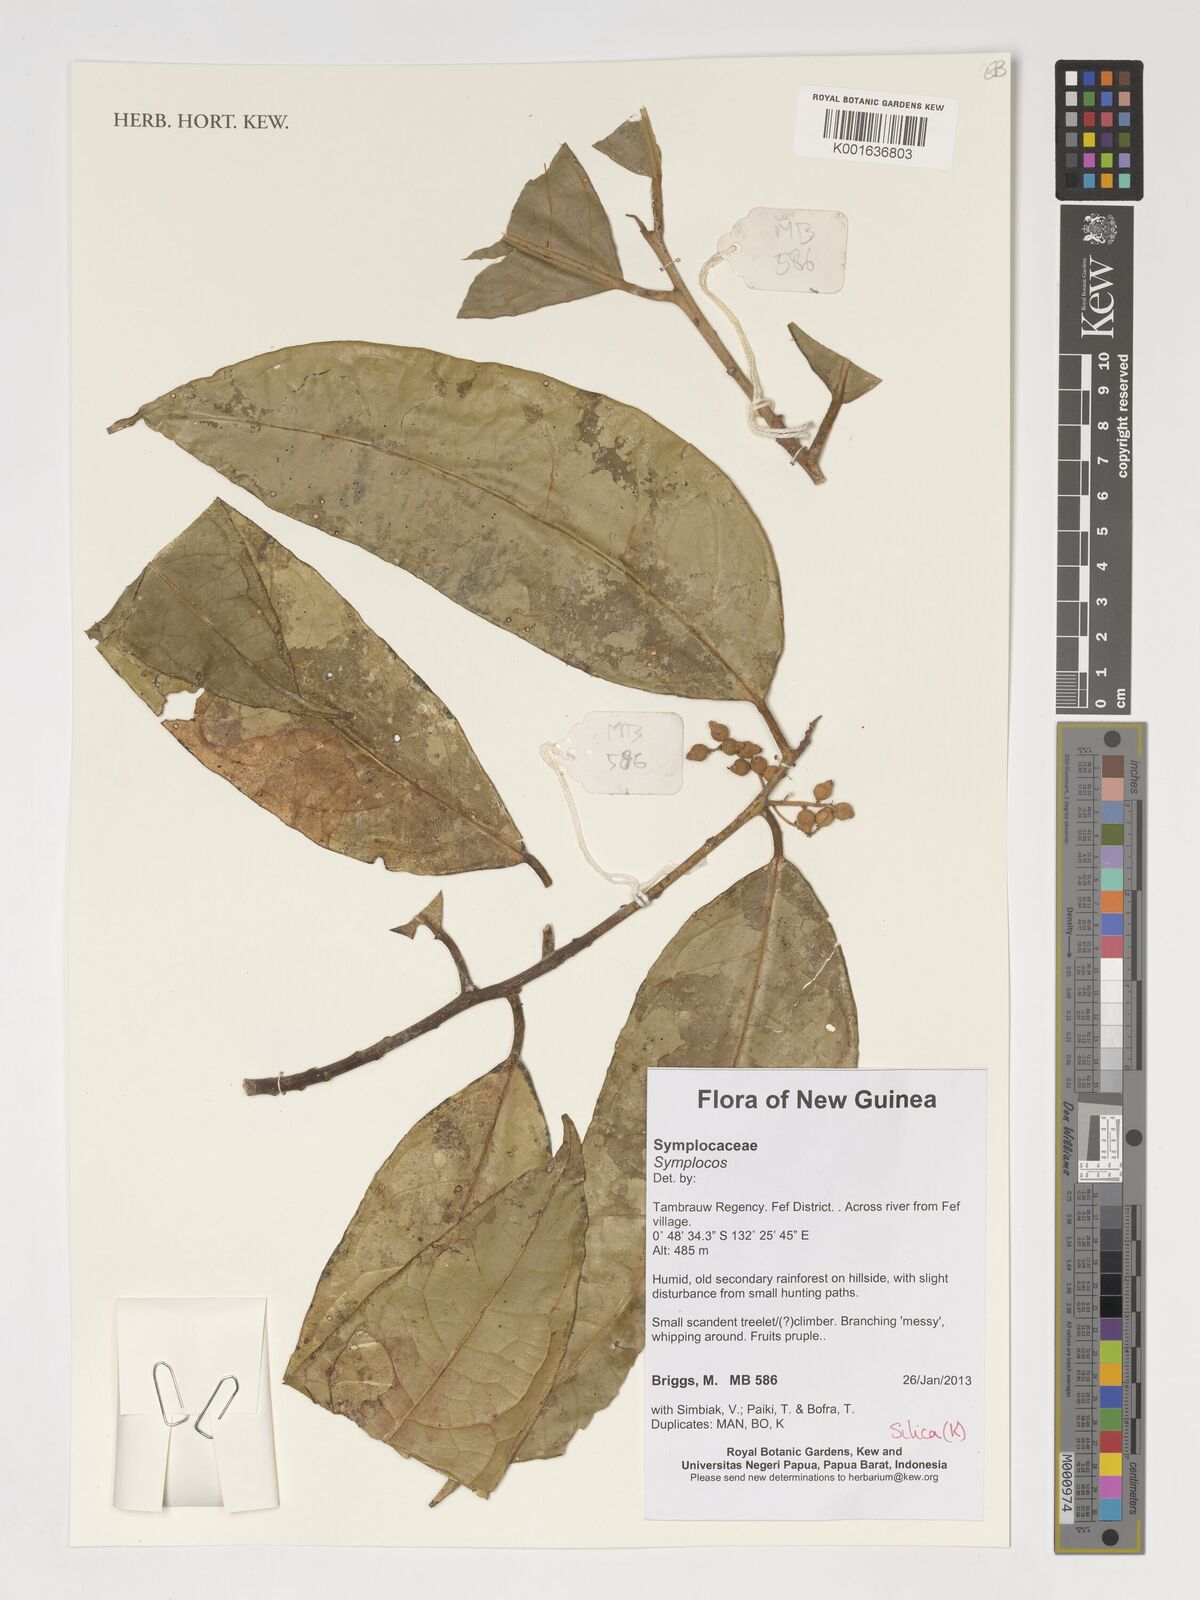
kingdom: Plantae
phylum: Tracheophyta
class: Magnoliopsida
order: Ericales
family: Symplocaceae
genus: Symplocos
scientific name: Symplocos
